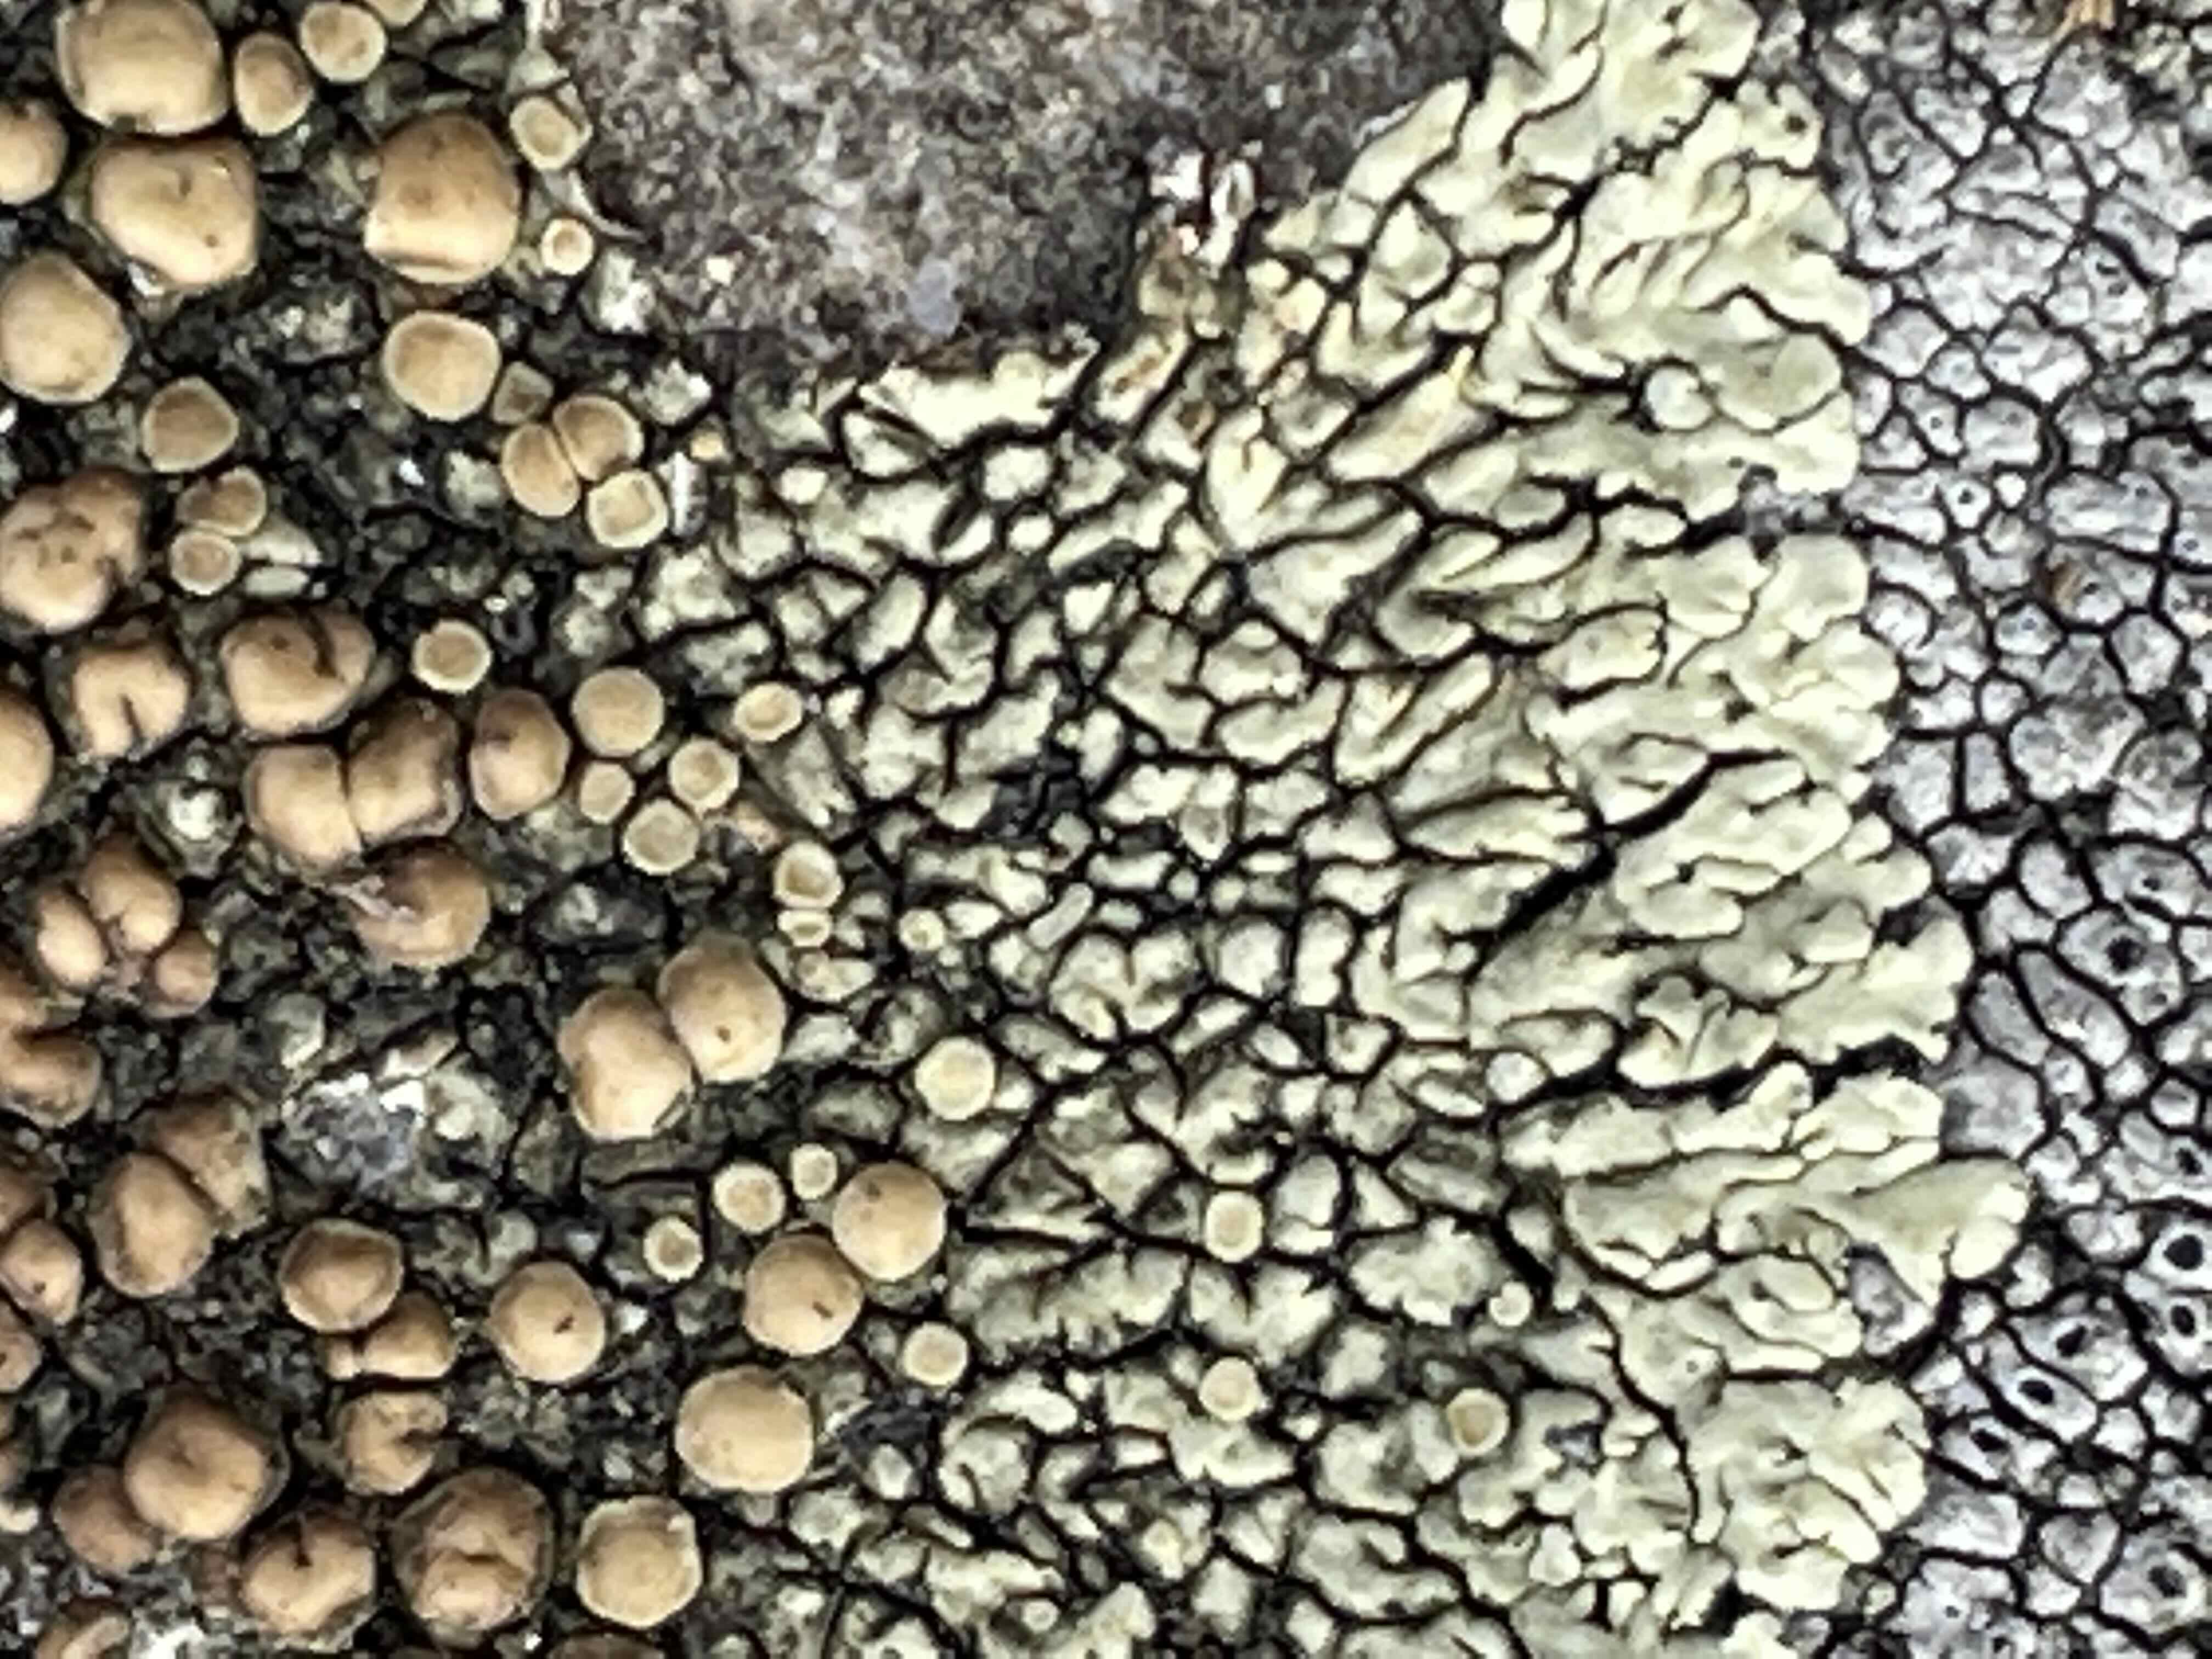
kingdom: Fungi
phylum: Ascomycota
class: Lecanoromycetes
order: Lecanorales
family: Lecanoraceae
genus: Protoparmeliopsis
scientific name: Protoparmeliopsis muralis
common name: randfliget kantskivelav
